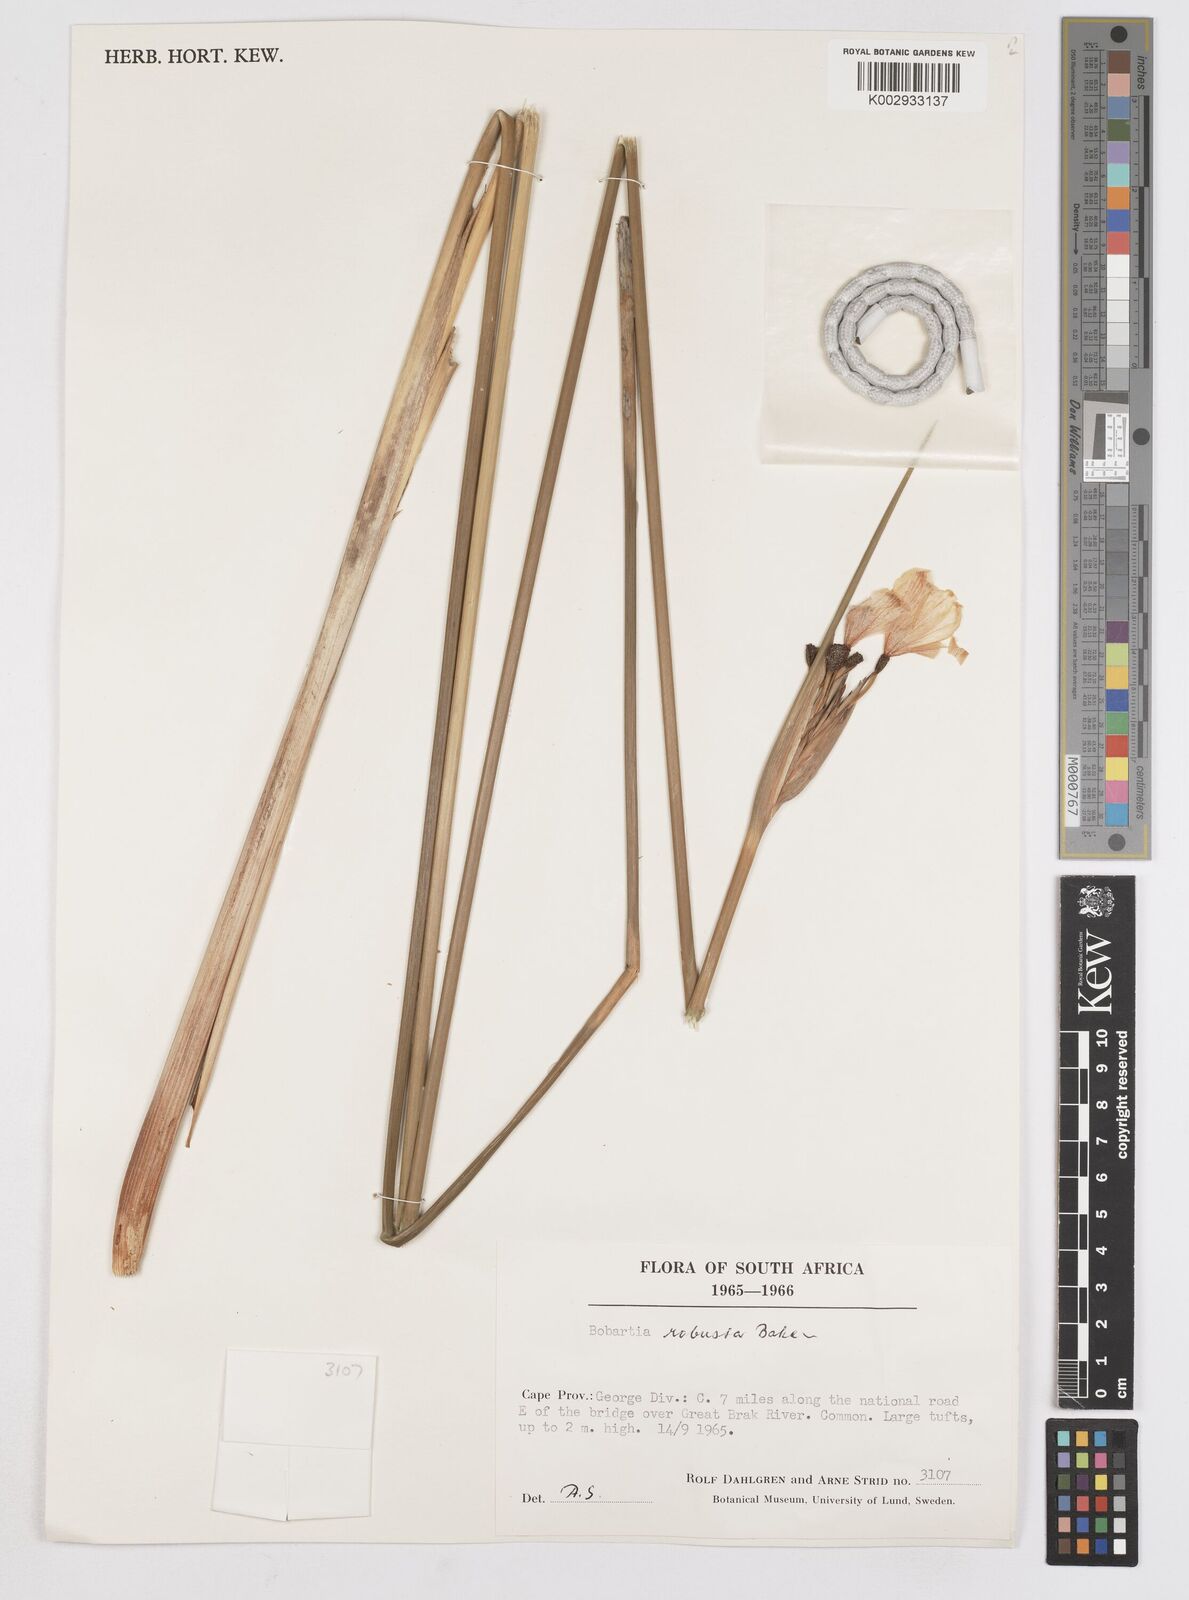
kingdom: Plantae
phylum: Tracheophyta
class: Liliopsida
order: Asparagales
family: Iridaceae
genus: Bobartia
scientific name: Bobartia robusta
